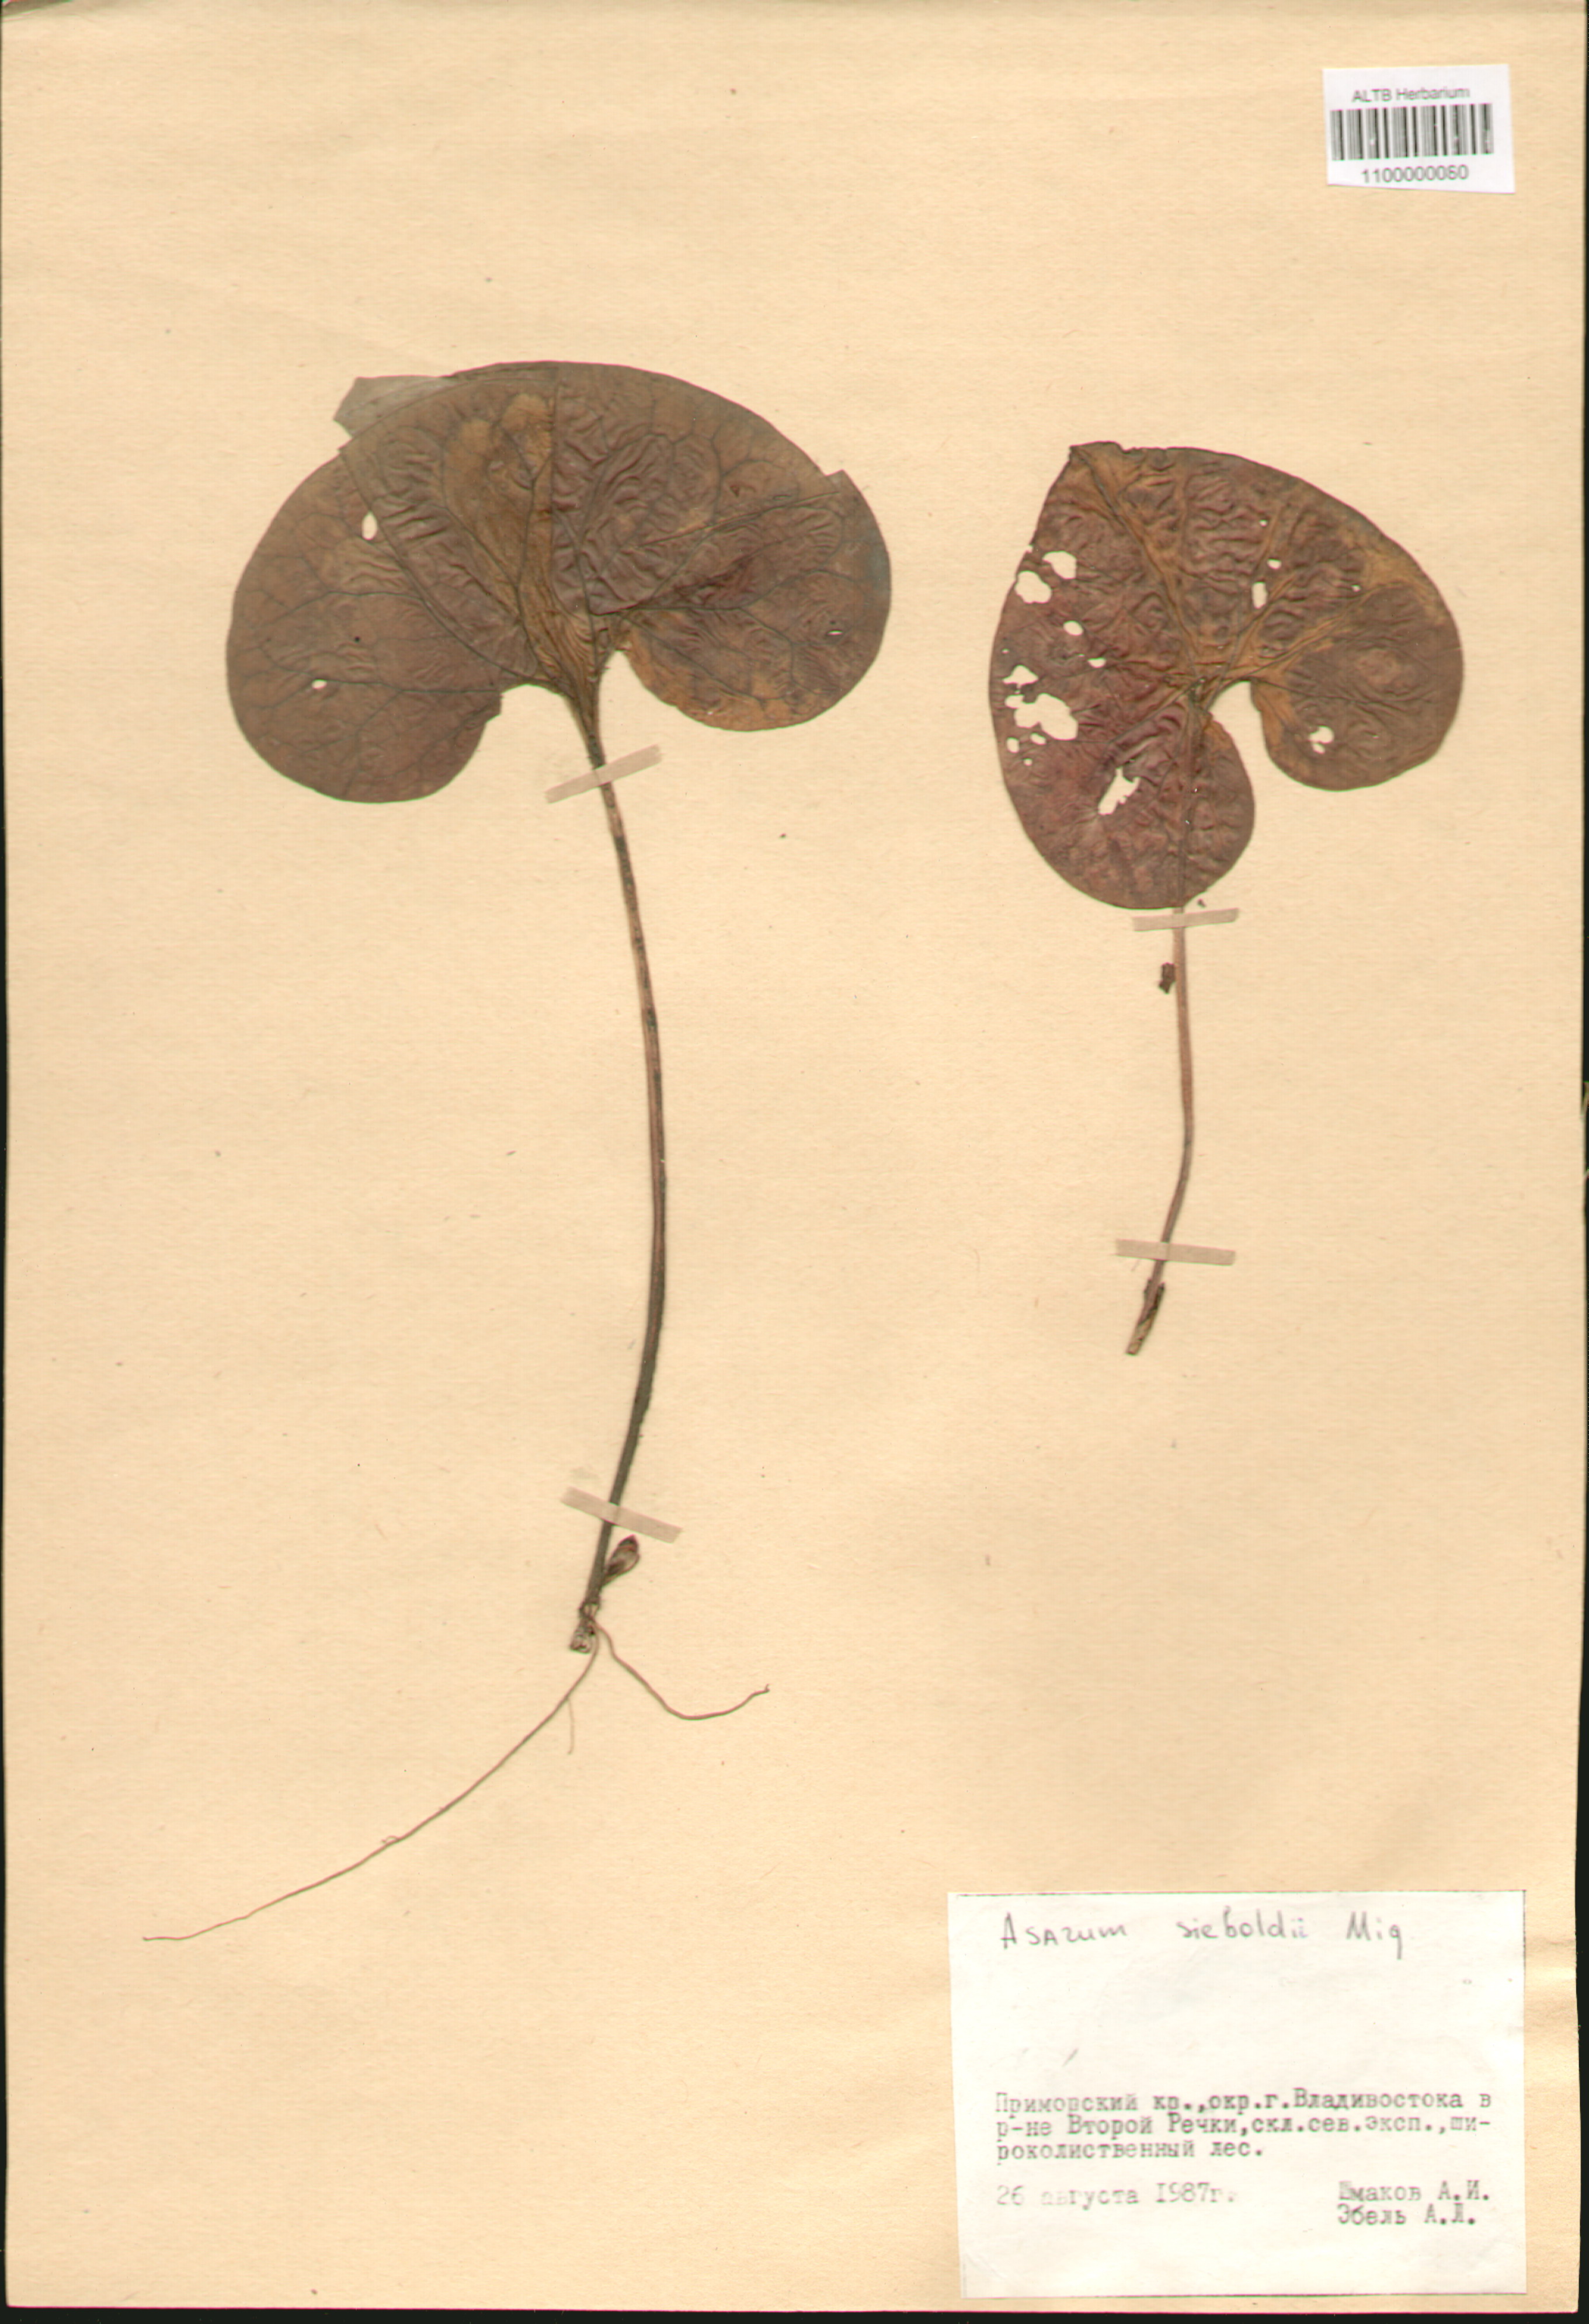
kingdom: Plantae
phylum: Tracheophyta
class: Magnoliopsida
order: Piperales
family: Aristolochiaceae
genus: Asarum
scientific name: Asarum sieboldii
